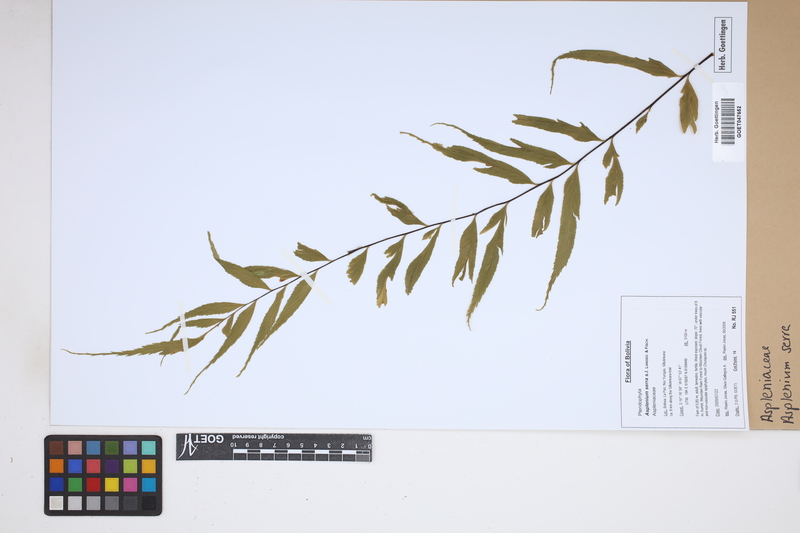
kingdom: Plantae
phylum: Tracheophyta
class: Polypodiopsida
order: Polypodiales
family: Aspleniaceae
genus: Asplenium
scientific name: Asplenium serra
